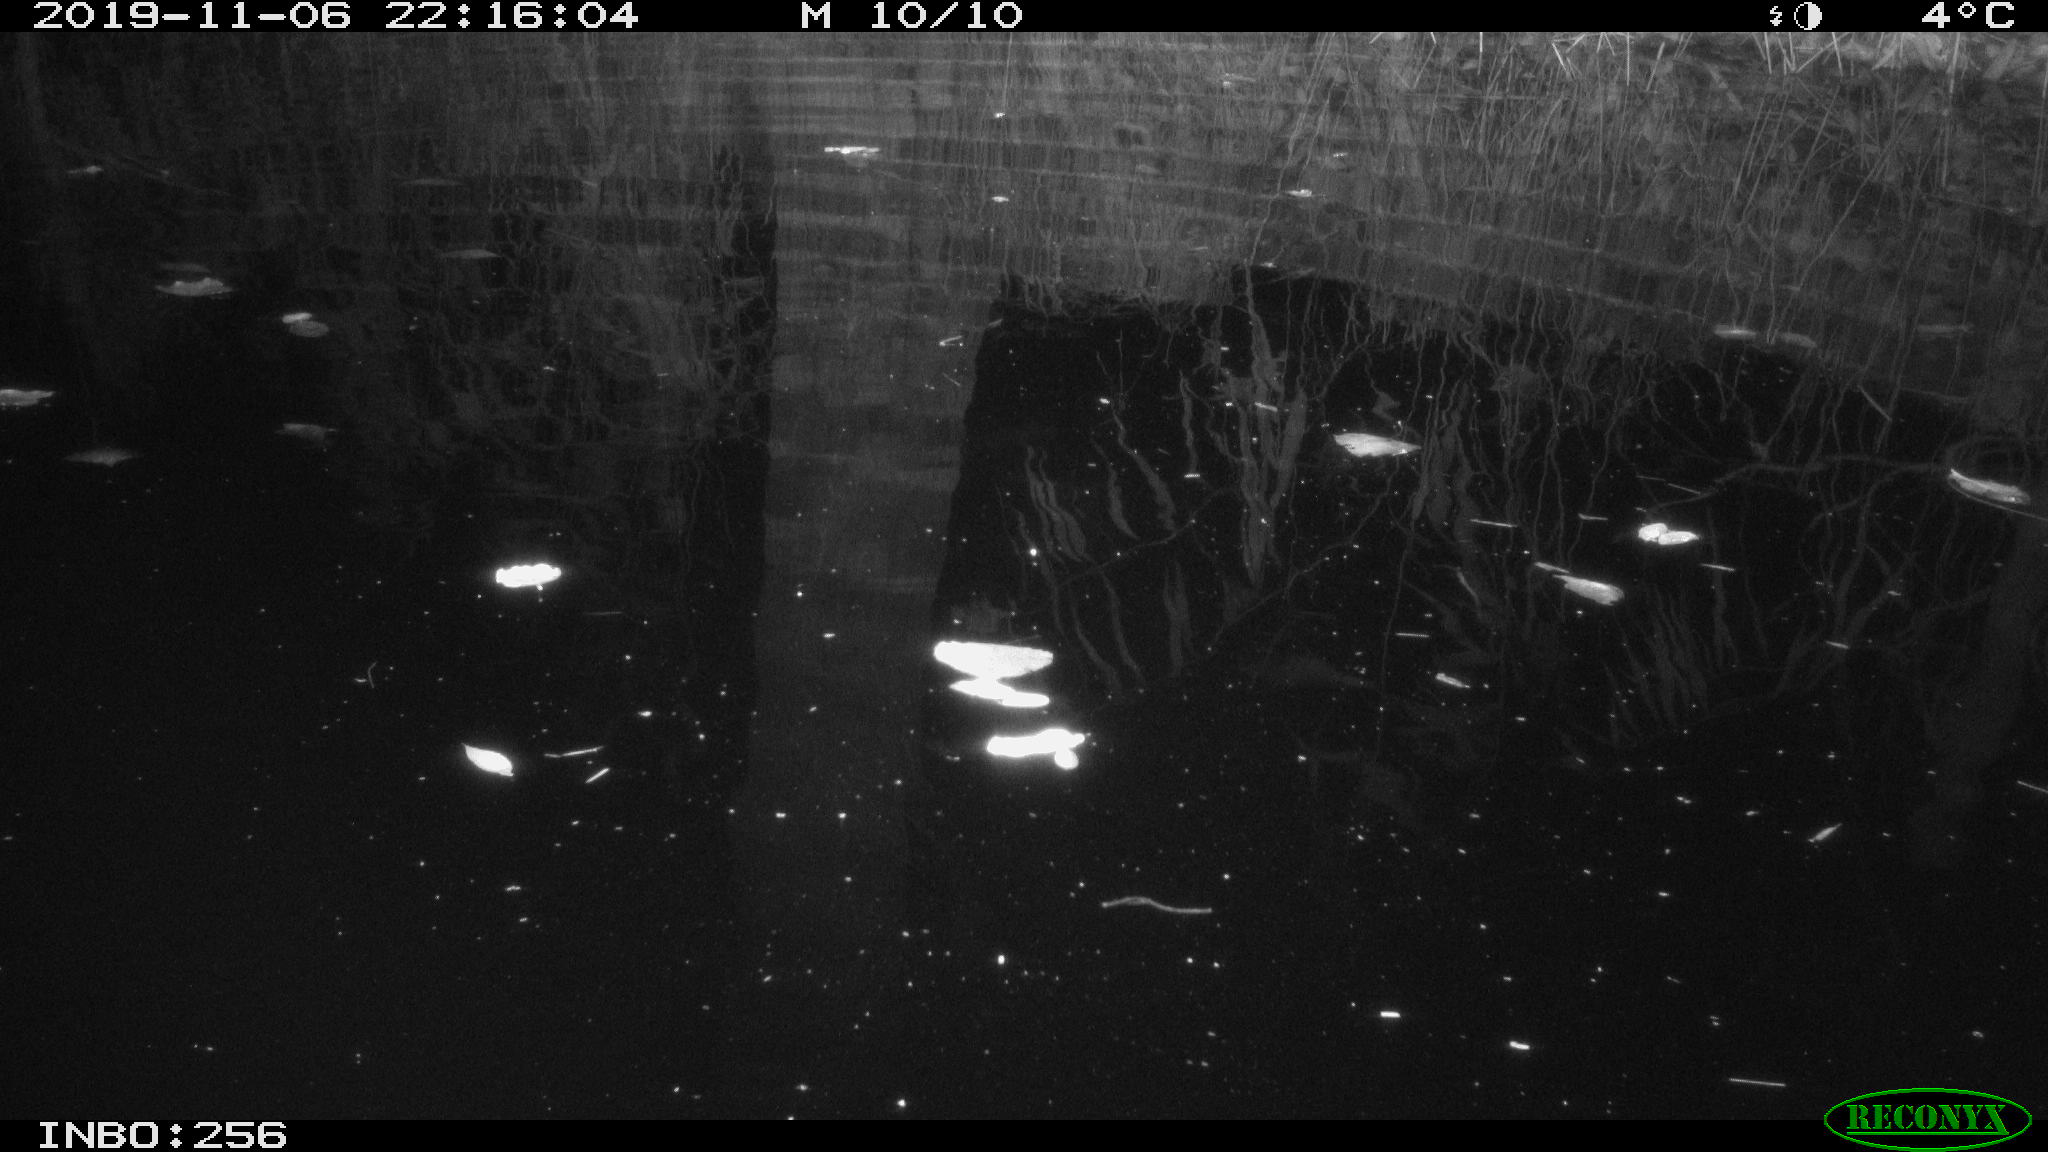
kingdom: Animalia
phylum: Chordata
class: Mammalia
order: Rodentia
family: Muridae
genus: Rattus
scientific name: Rattus norvegicus
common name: Brown rat
